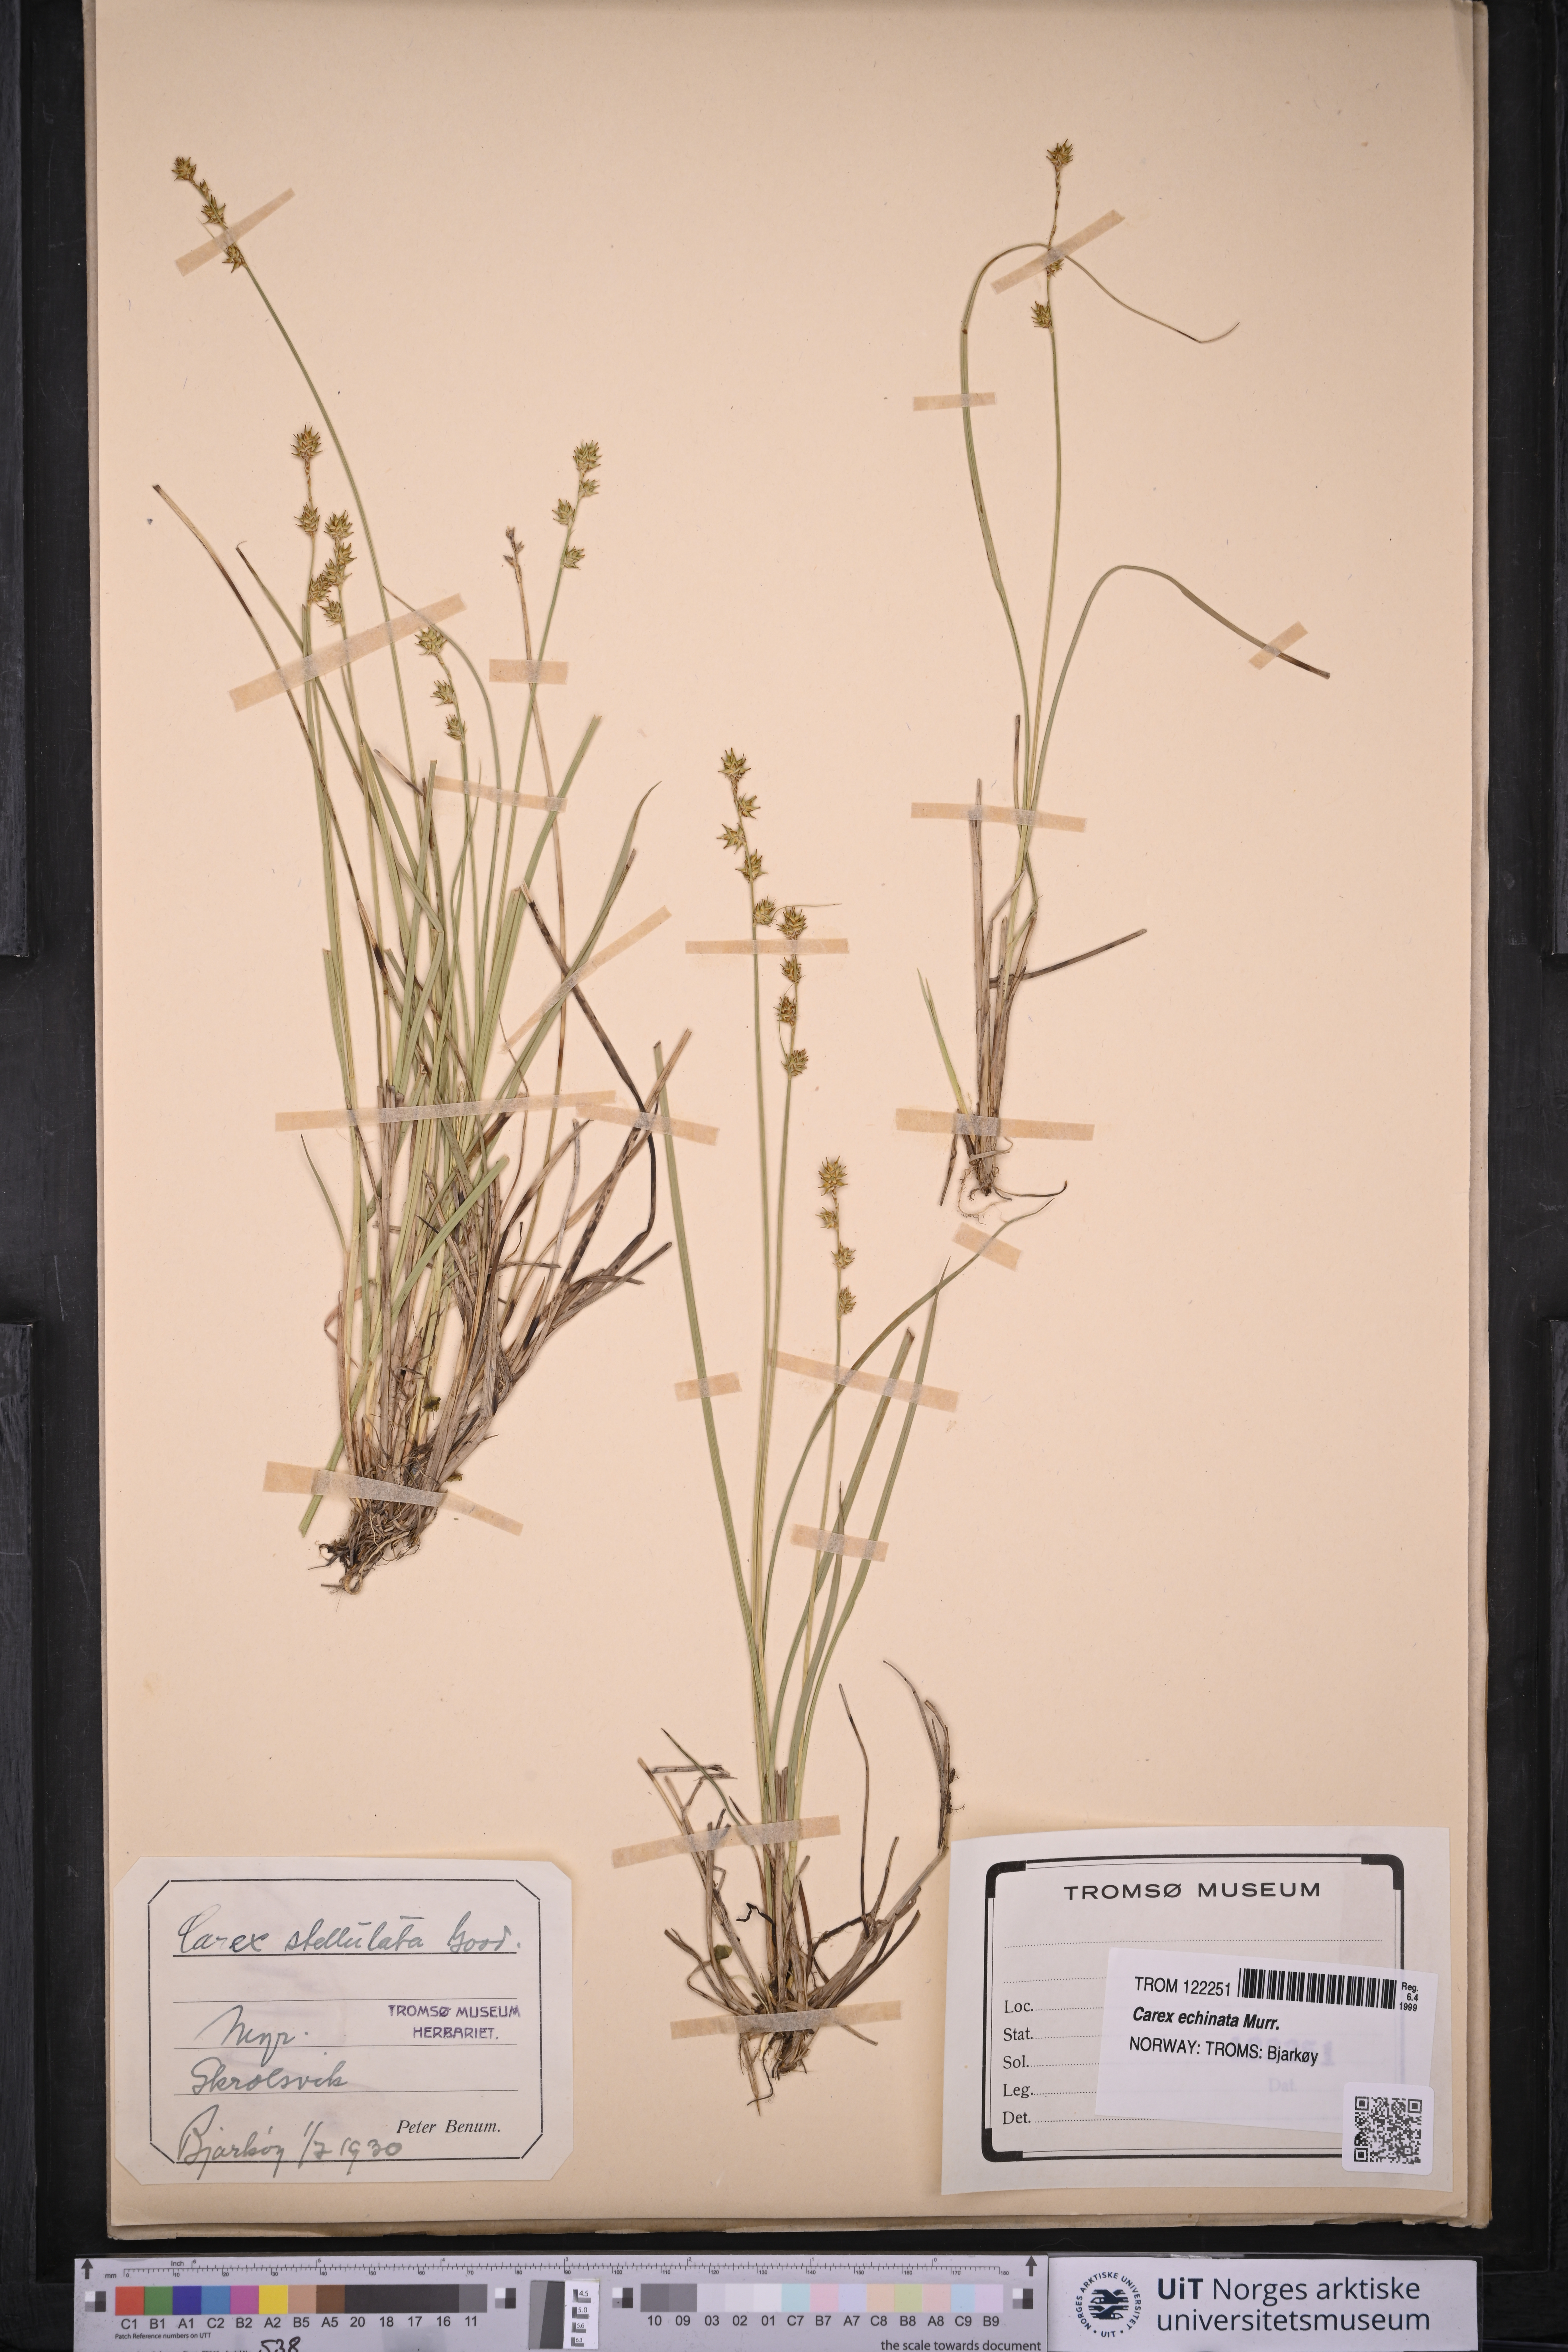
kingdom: Plantae
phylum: Tracheophyta
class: Liliopsida
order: Poales
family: Cyperaceae
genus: Carex
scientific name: Carex echinata
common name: Star sedge
